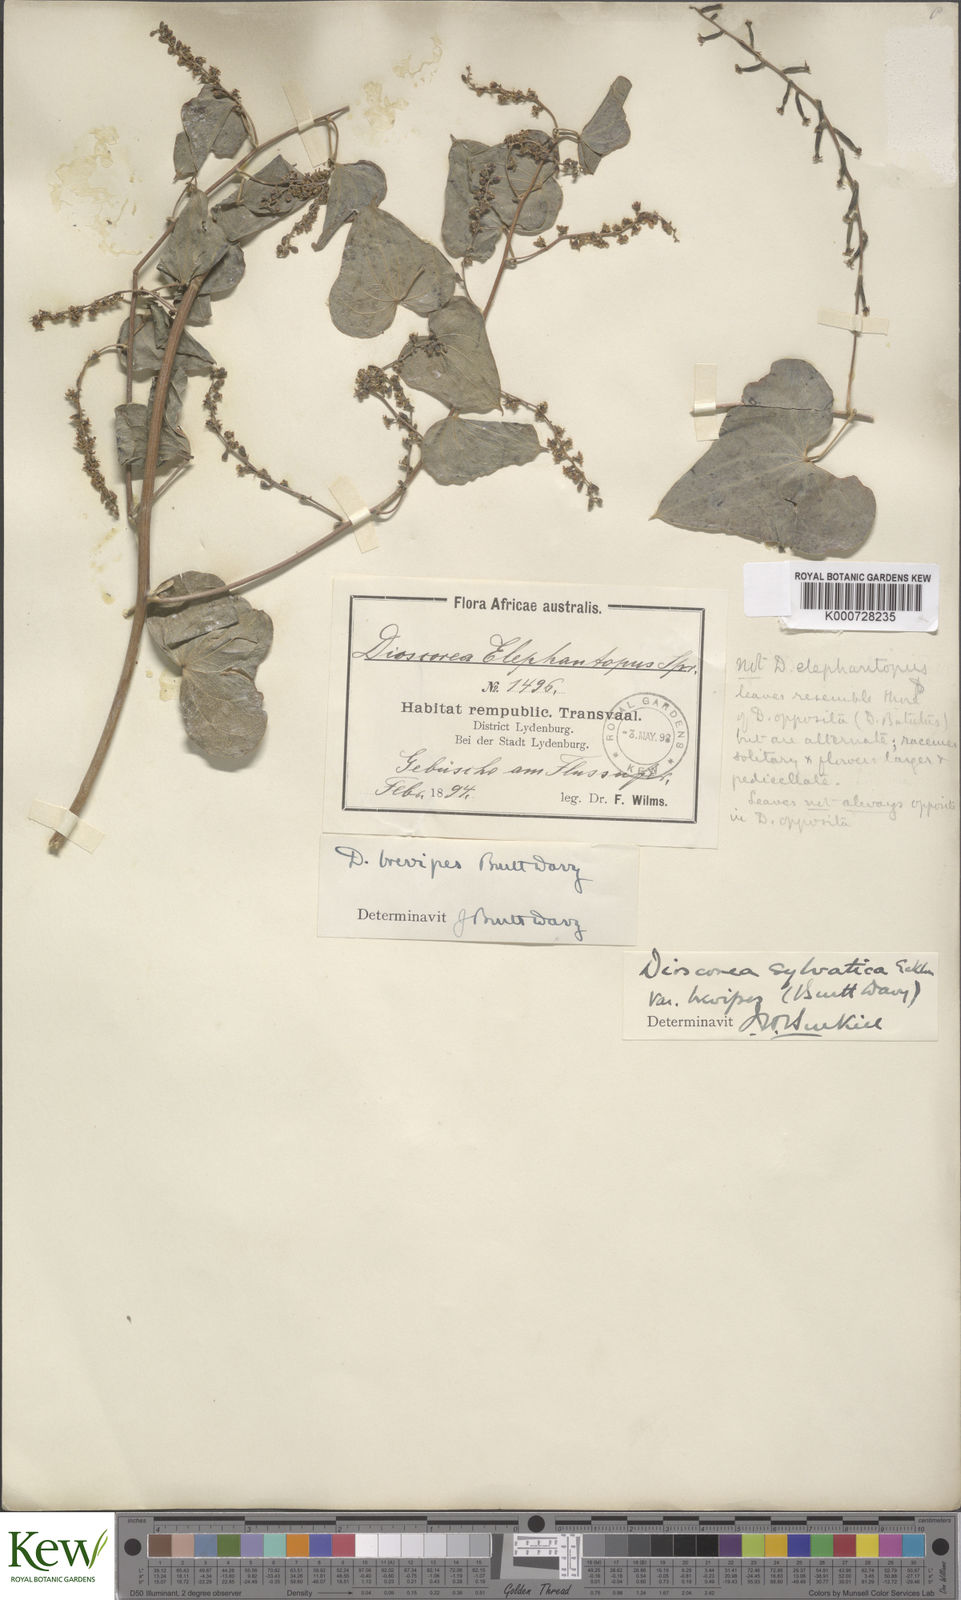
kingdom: Plantae
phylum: Tracheophyta
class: Liliopsida
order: Dioscoreales
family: Dioscoreaceae
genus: Dioscorea
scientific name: Dioscorea sylvatica
